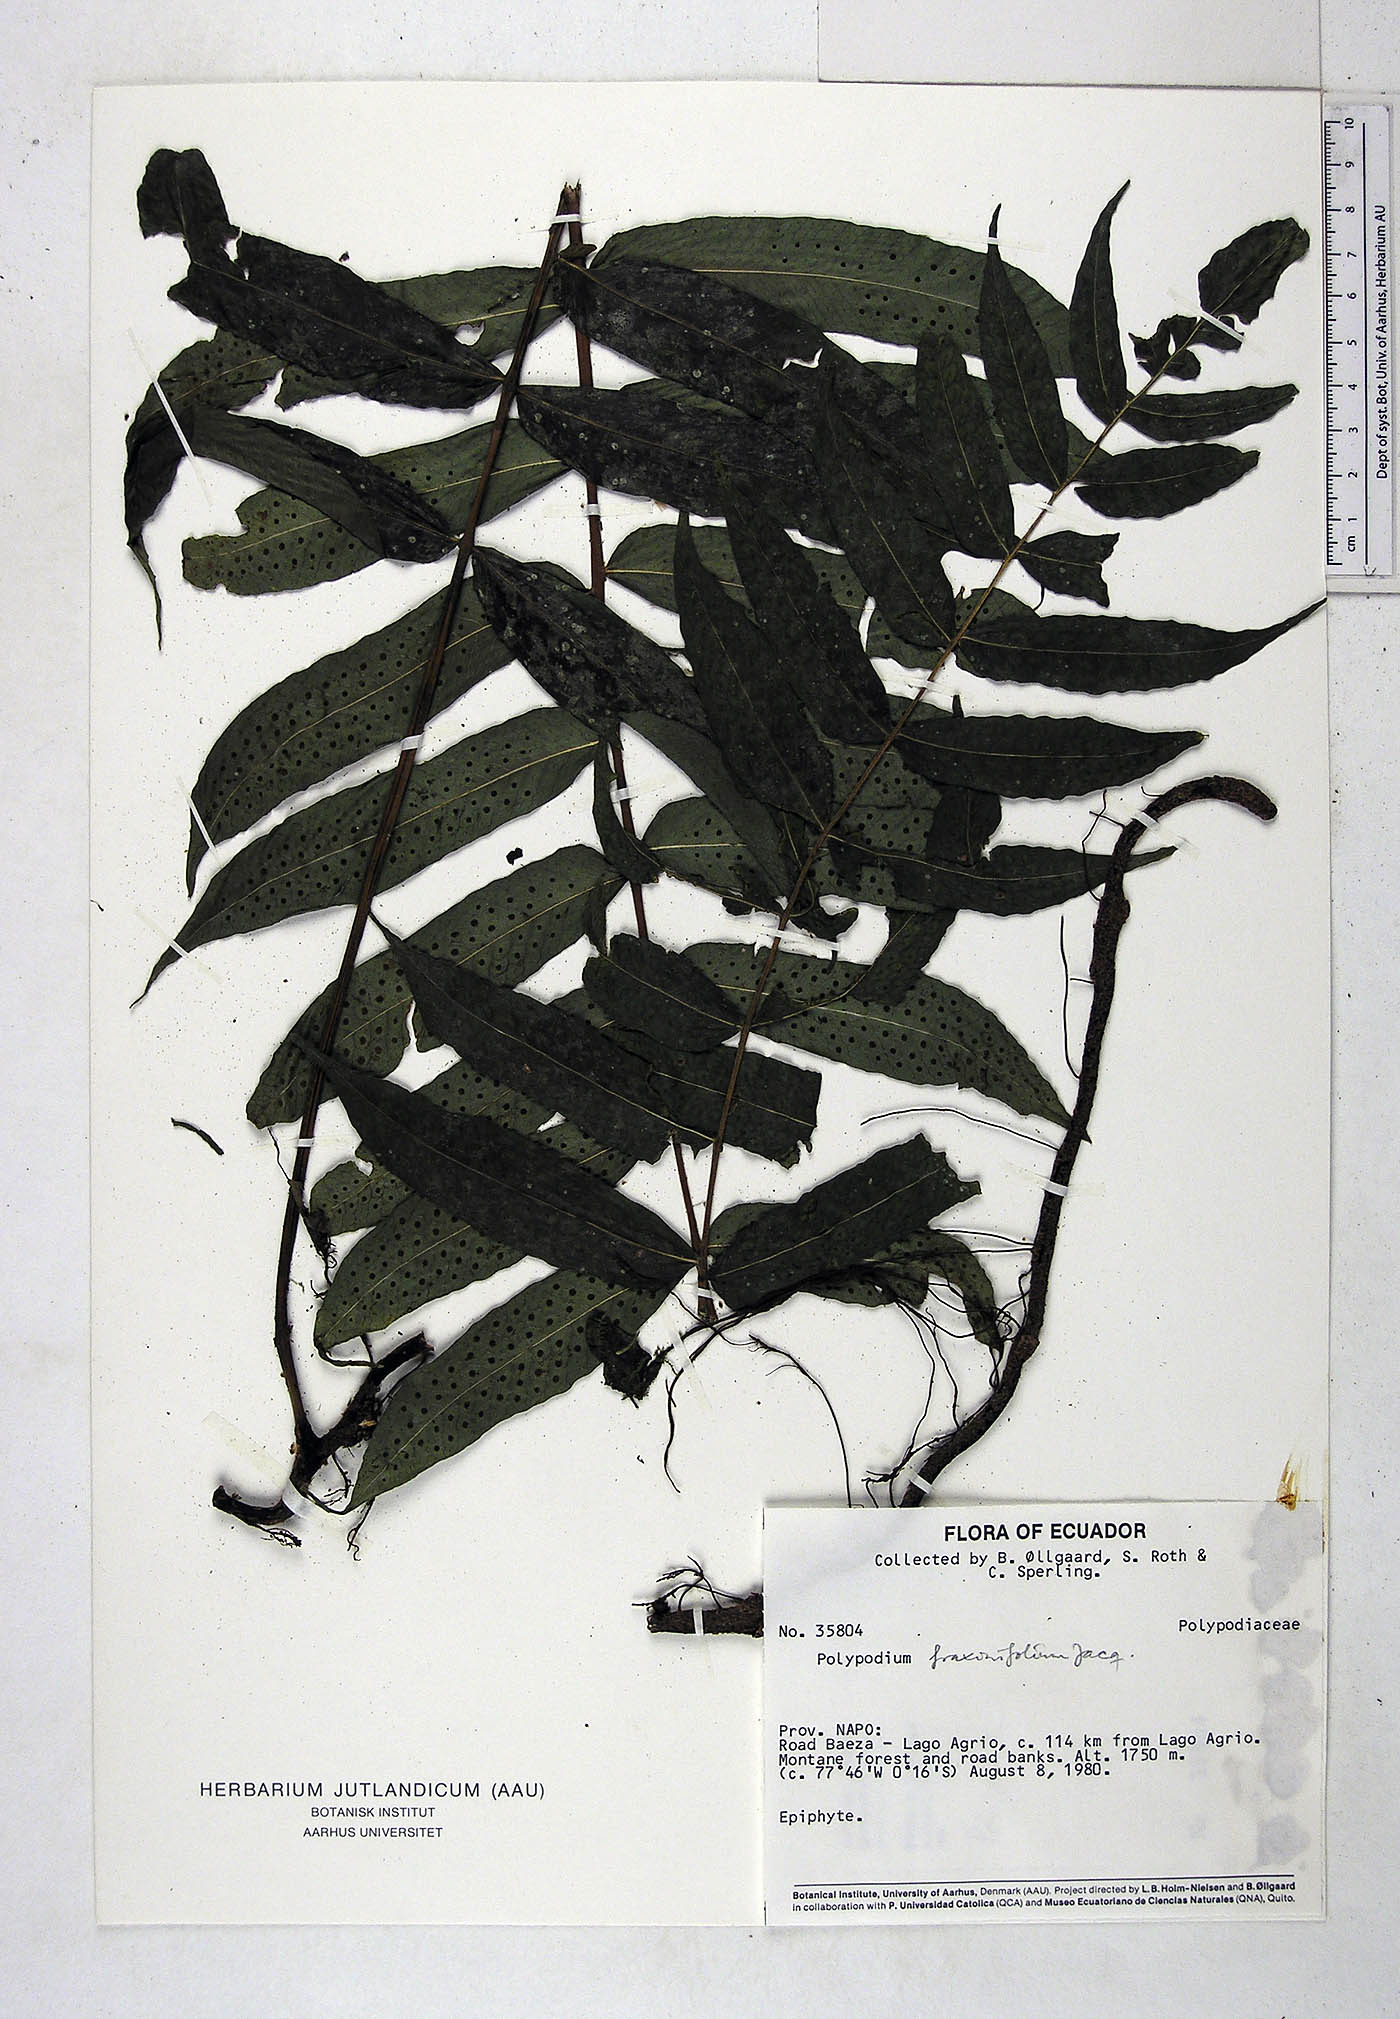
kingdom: Plantae
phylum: Tracheophyta
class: Polypodiopsida
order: Polypodiales
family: Polypodiaceae
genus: Serpocaulon
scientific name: Serpocaulon fraxinifolium
